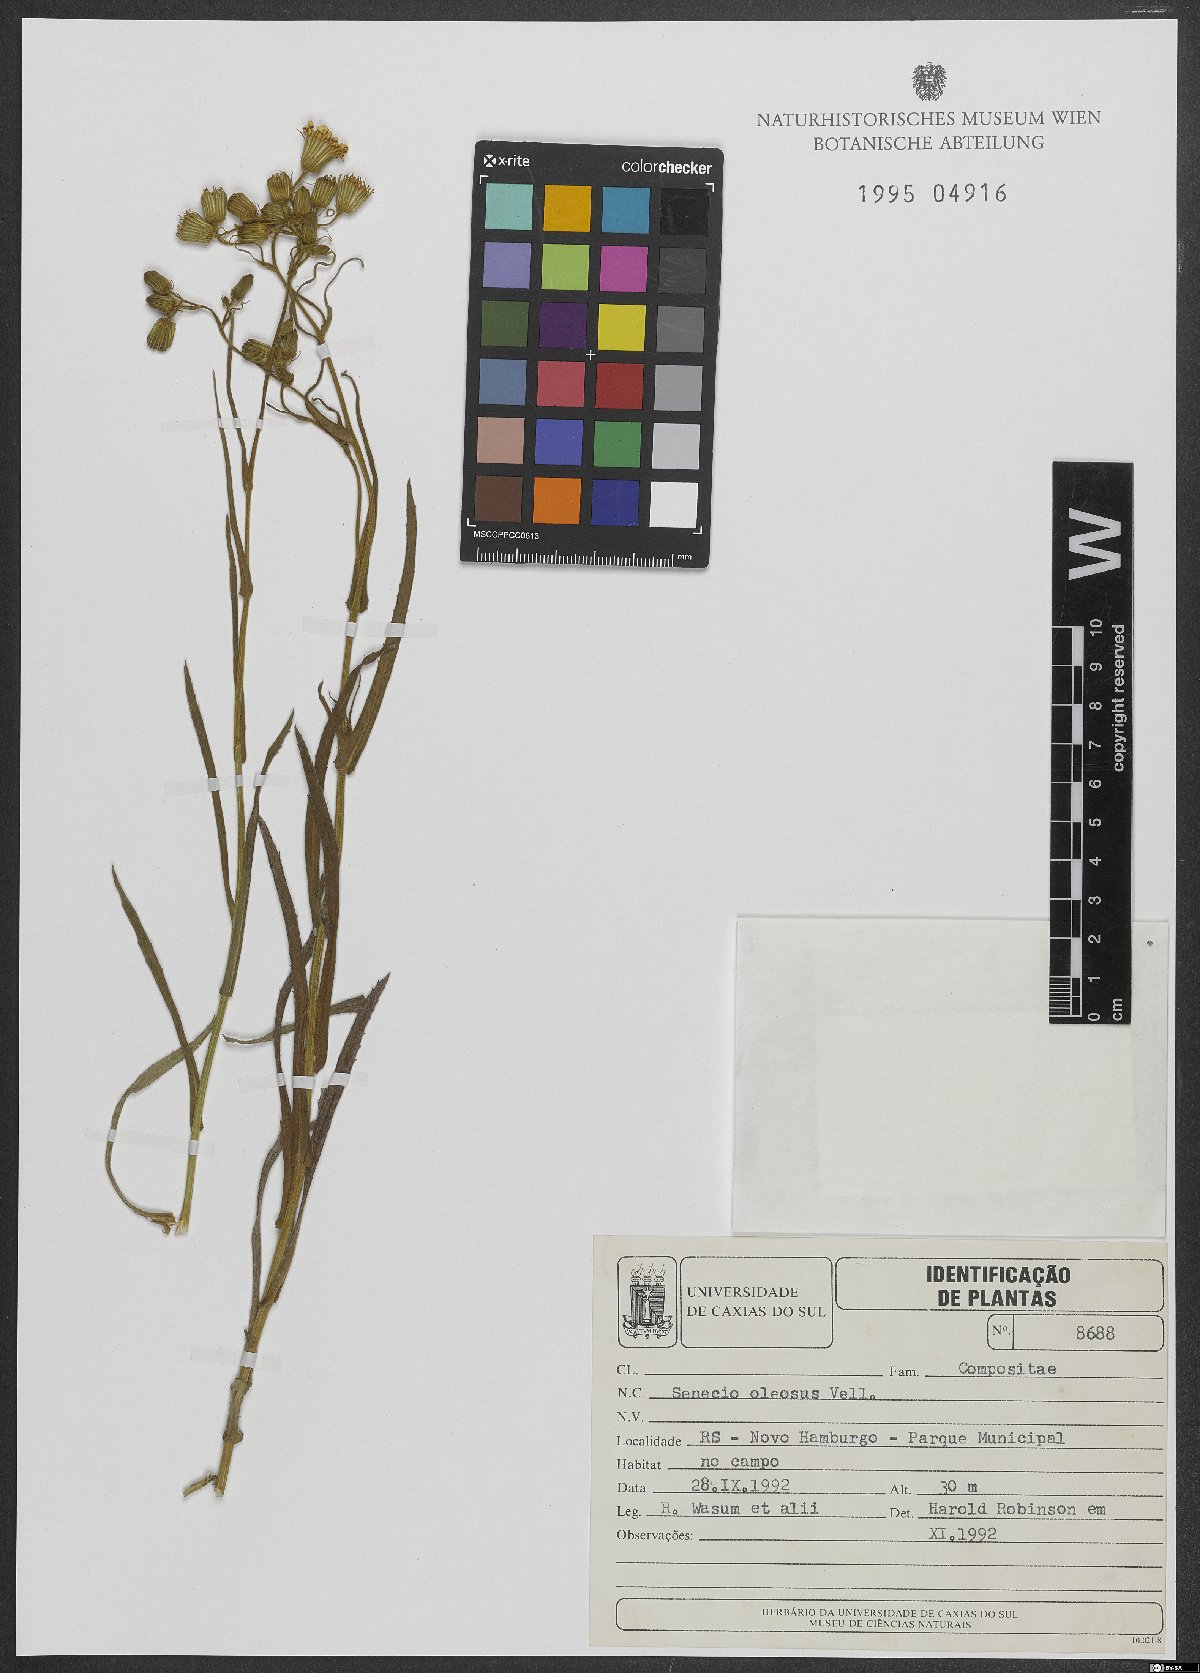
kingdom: Plantae
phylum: Tracheophyta
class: Magnoliopsida
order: Asterales
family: Asteraceae
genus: Senecio
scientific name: Senecio oleosus
